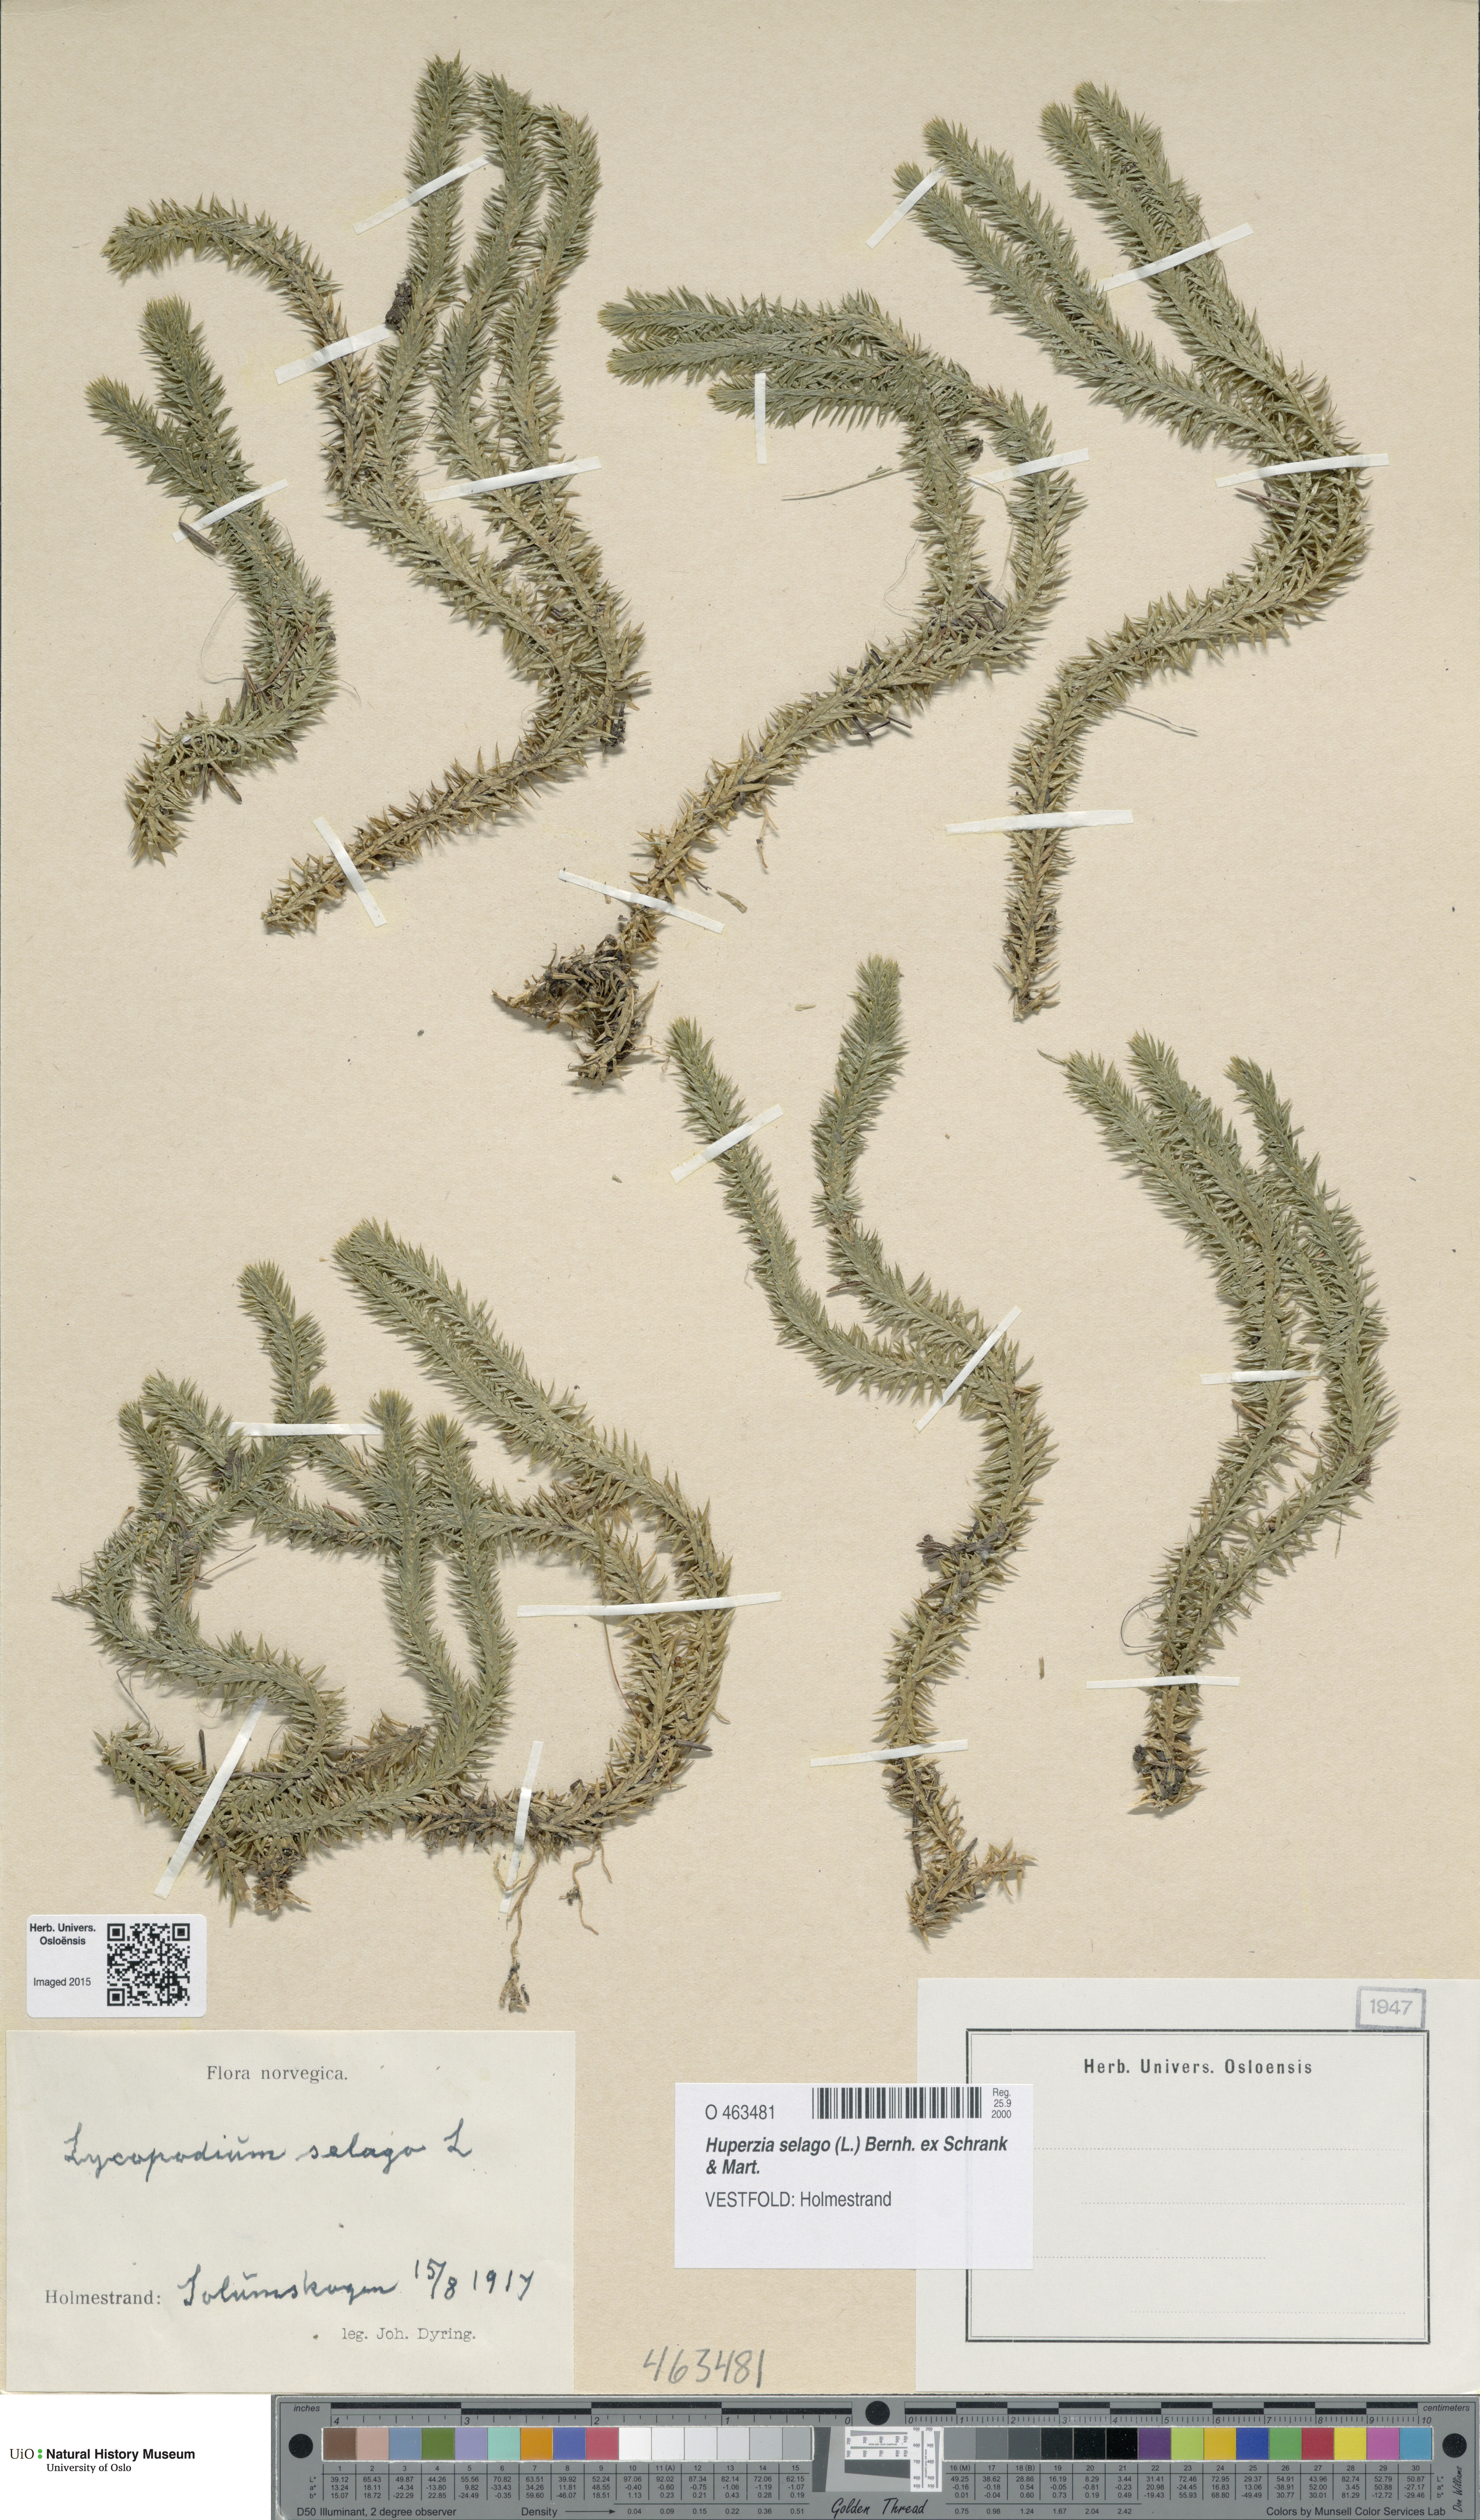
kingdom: Plantae
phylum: Tracheophyta
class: Lycopodiopsida
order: Lycopodiales
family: Lycopodiaceae
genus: Huperzia
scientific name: Huperzia selago
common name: Northern firmoss
